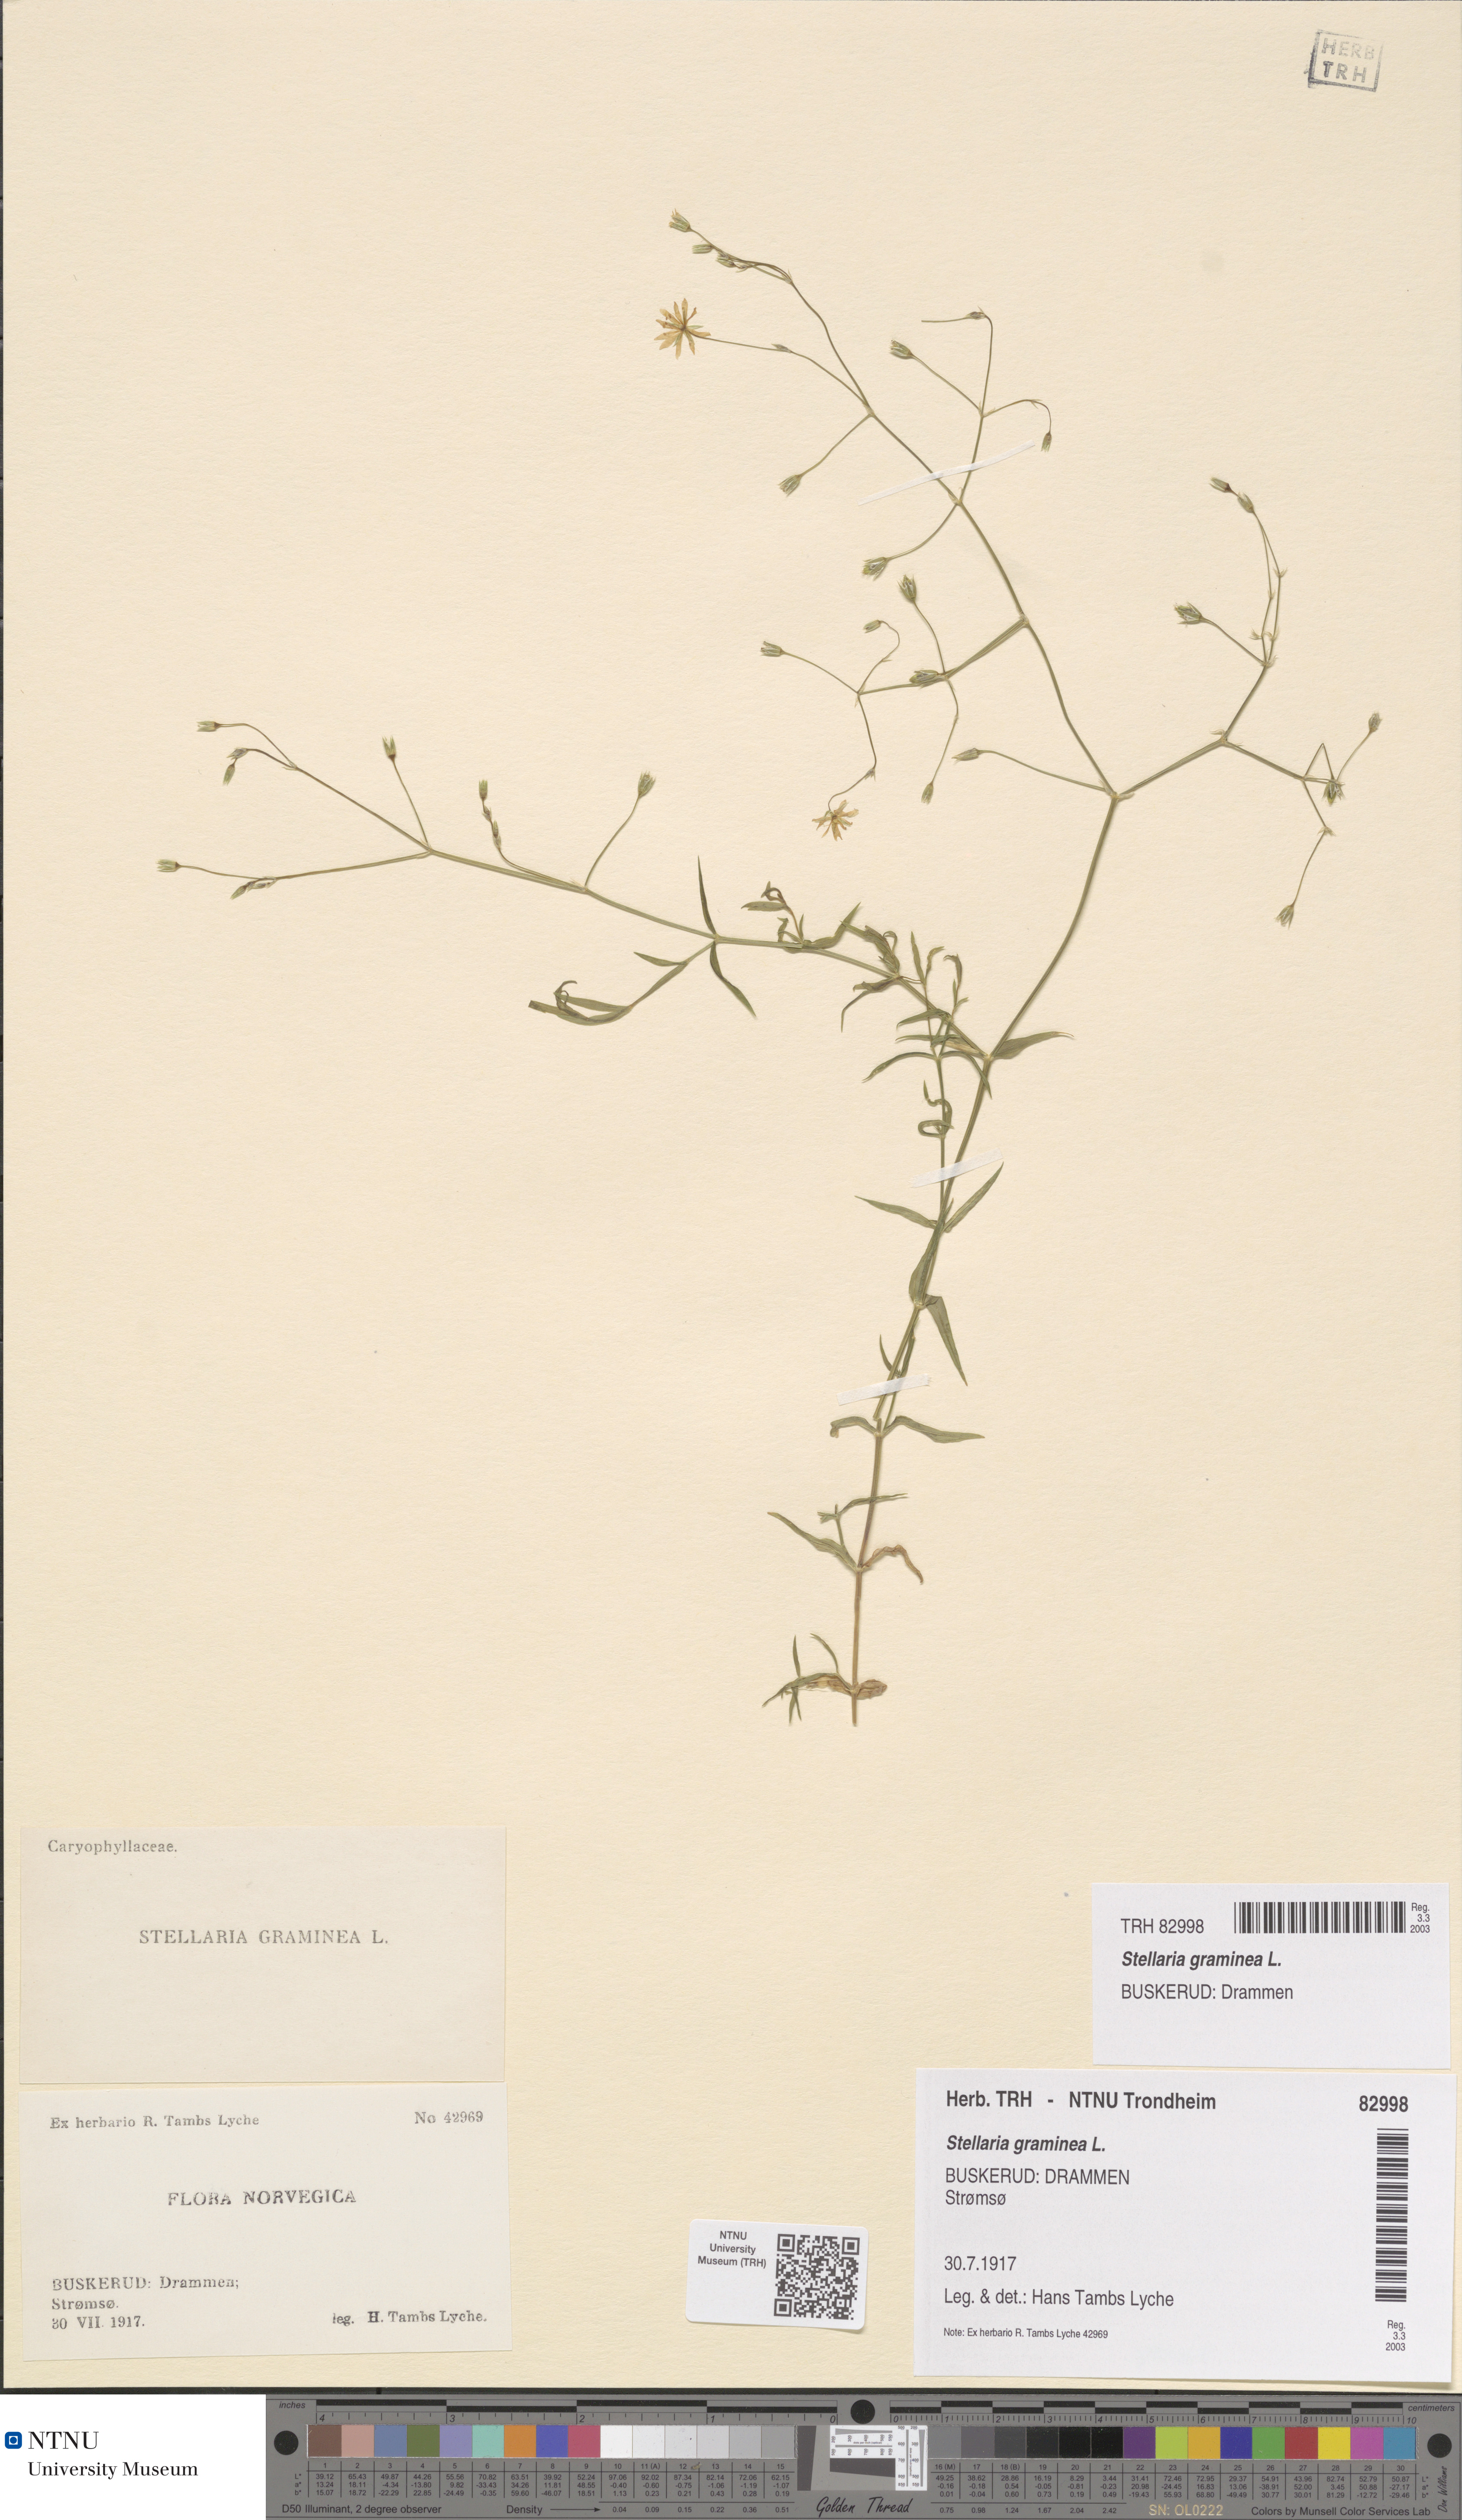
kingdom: Plantae
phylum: Tracheophyta
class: Magnoliopsida
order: Caryophyllales
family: Caryophyllaceae
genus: Stellaria
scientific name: Stellaria graminea
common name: Grass-like starwort
